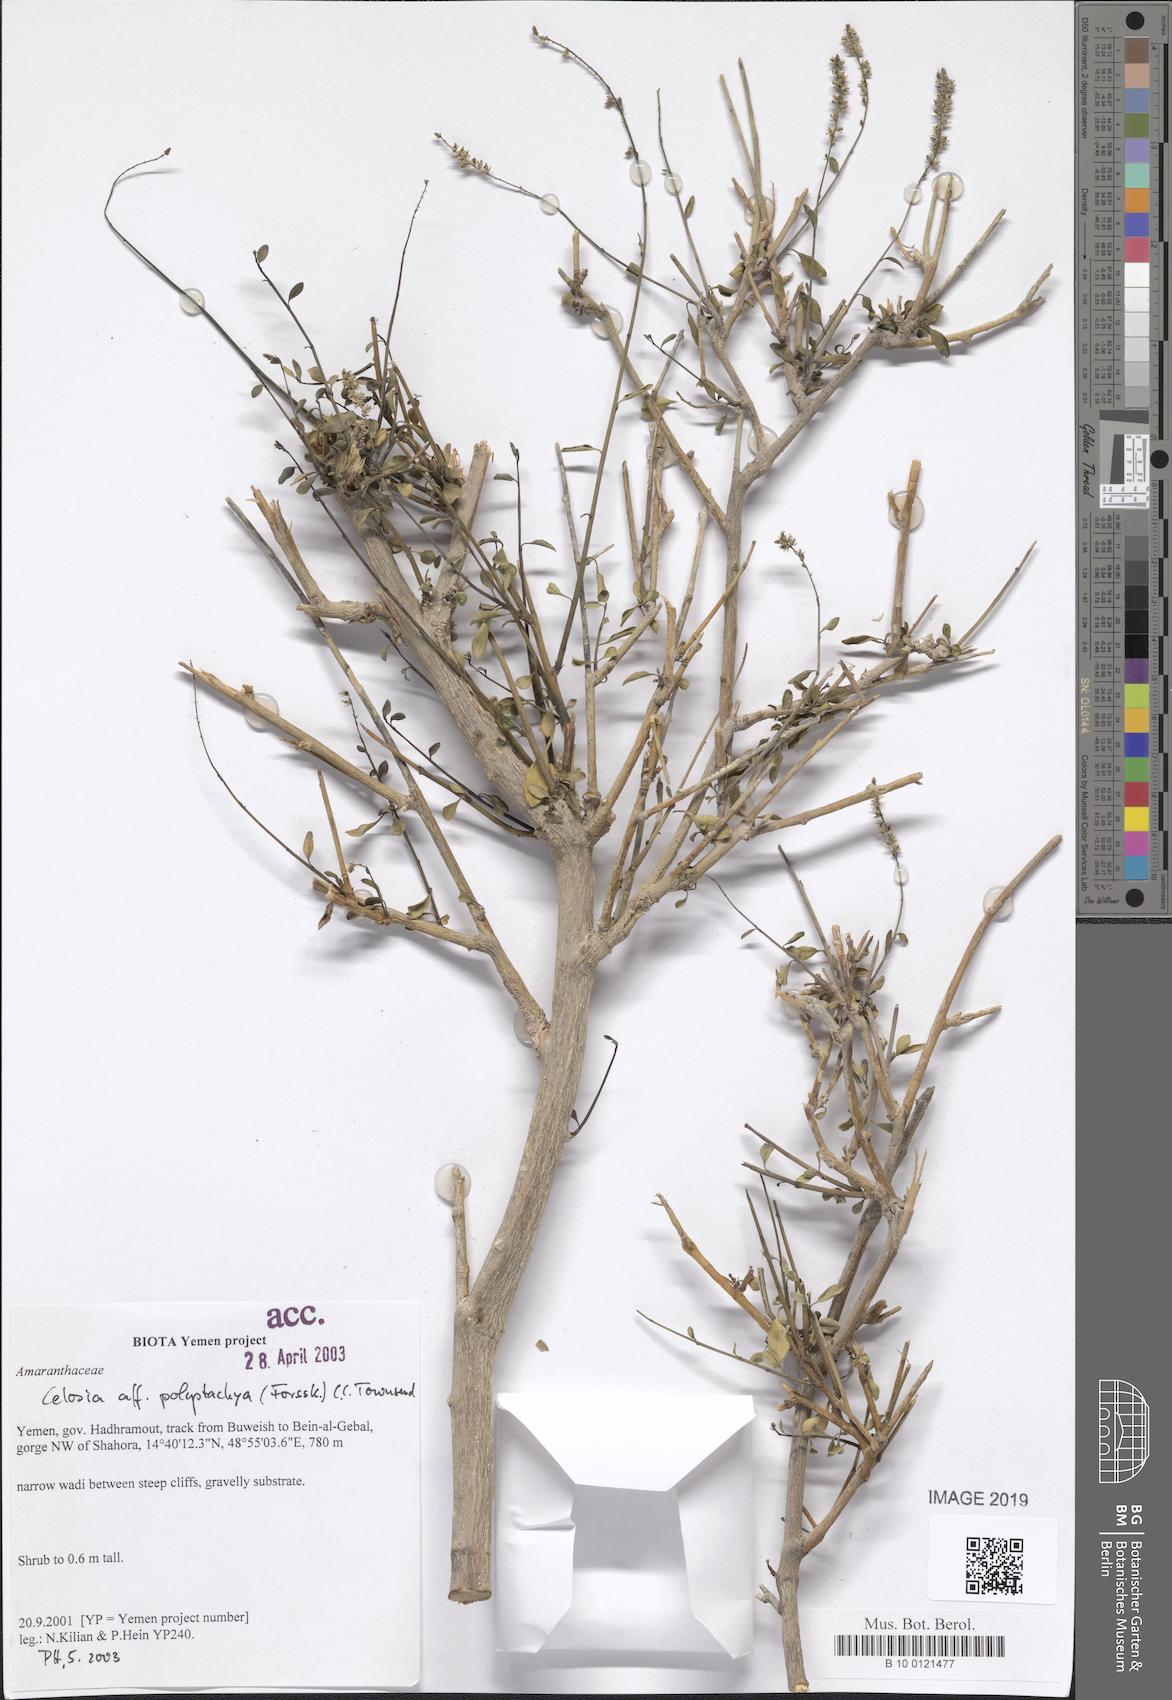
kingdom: Plantae
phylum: Tracheophyta
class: Magnoliopsida
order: Caryophyllales
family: Amaranthaceae
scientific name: Amaranthaceae
